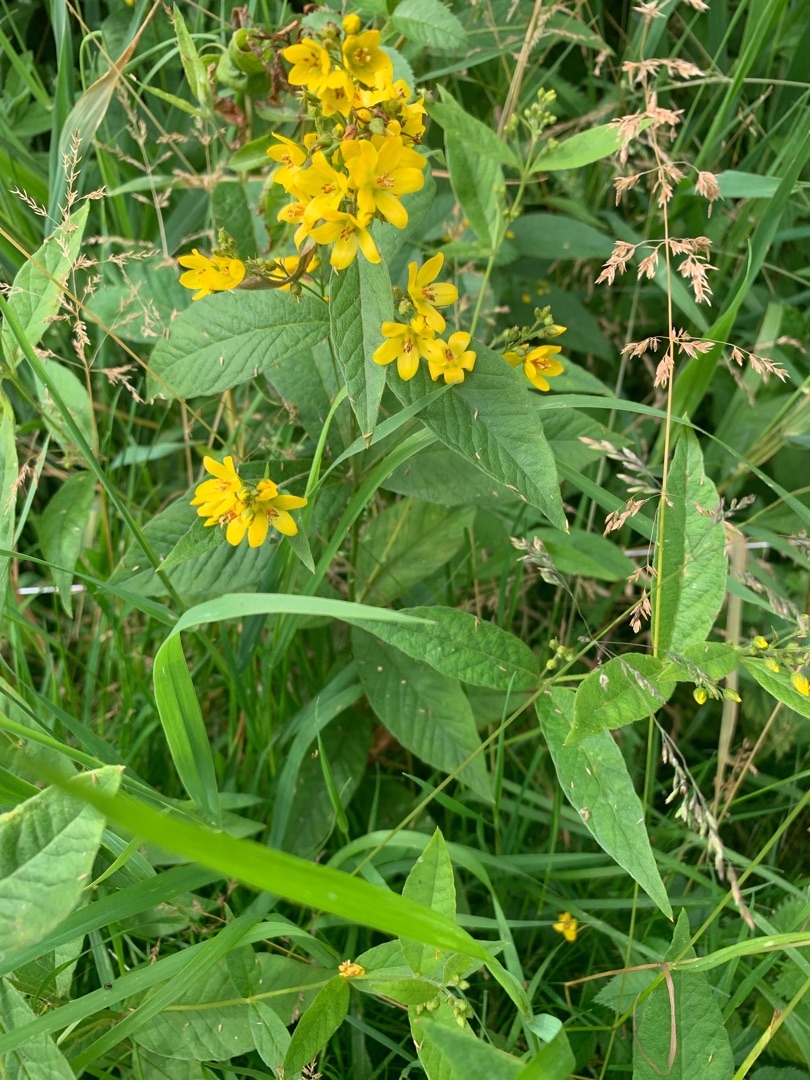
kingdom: Plantae
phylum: Tracheophyta
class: Magnoliopsida
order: Ericales
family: Primulaceae
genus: Lysimachia
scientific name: Lysimachia vulgaris
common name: Almindelig fredløs
